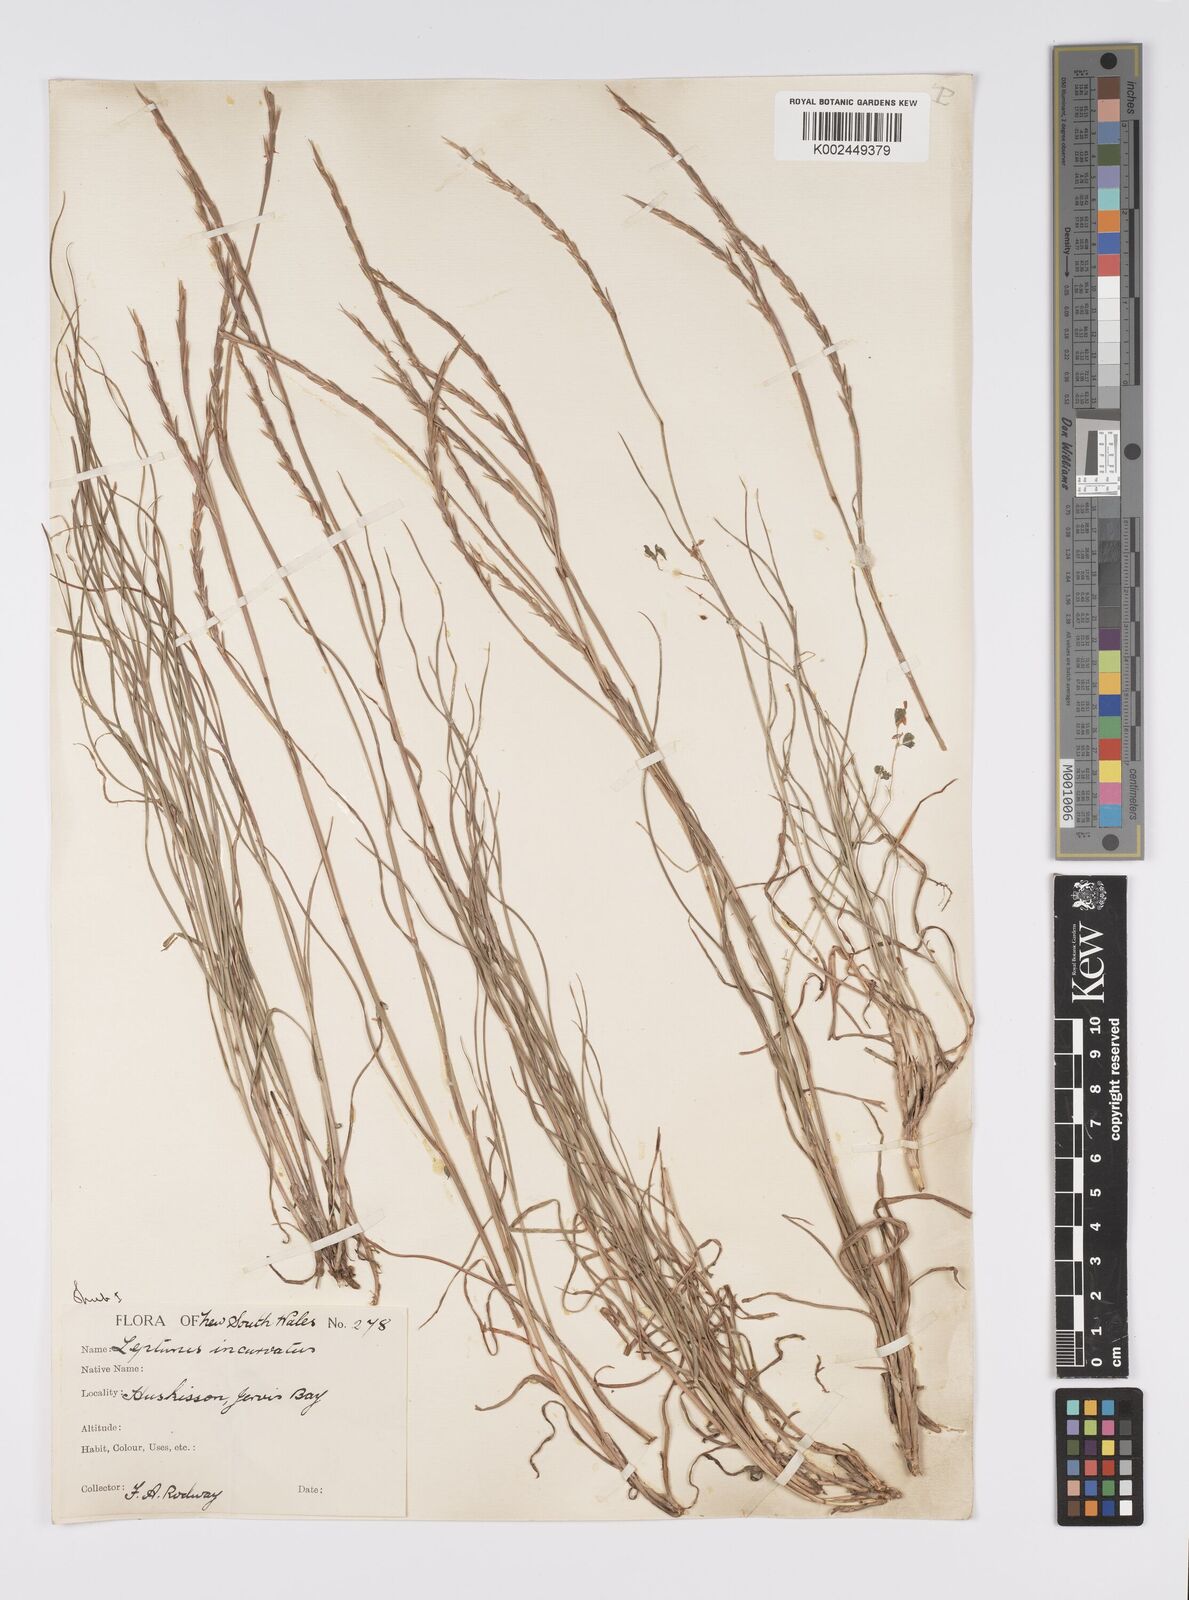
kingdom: Plantae
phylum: Tracheophyta
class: Liliopsida
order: Poales
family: Poaceae
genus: Hemarthria
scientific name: Hemarthria uncinata
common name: Matgrass
